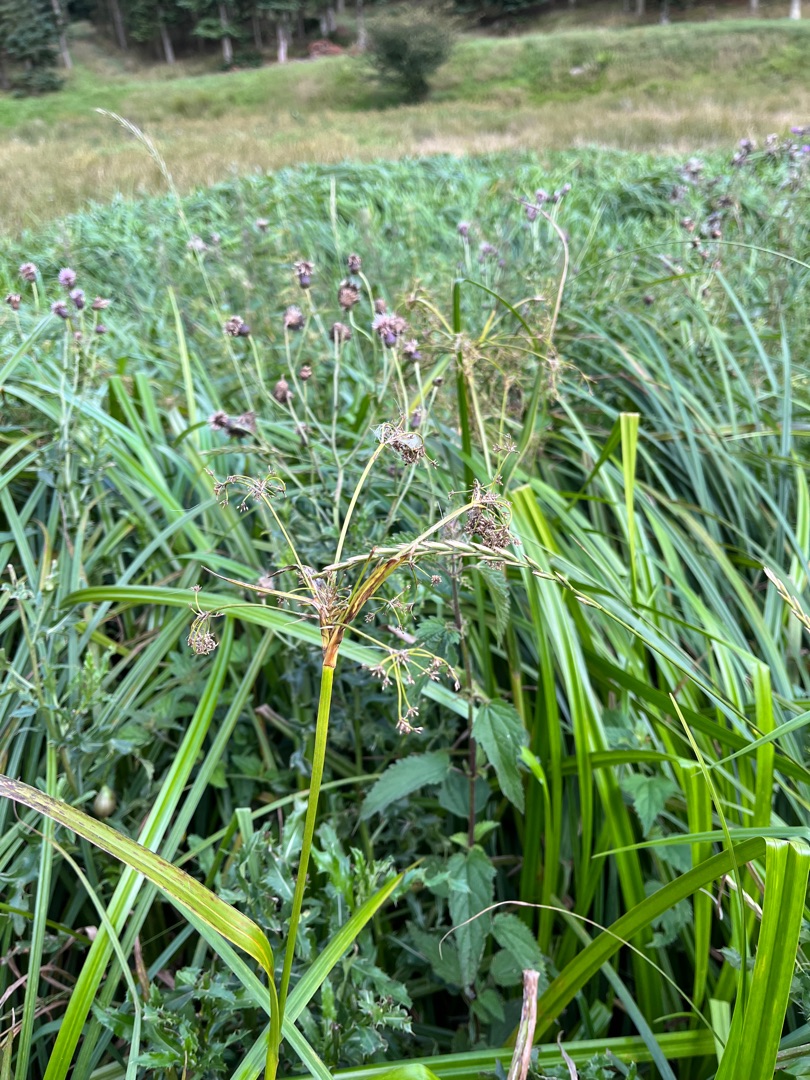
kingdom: Plantae
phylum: Tracheophyta
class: Liliopsida
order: Poales
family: Cyperaceae
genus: Scirpus
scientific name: Scirpus sylvaticus
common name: Skov-kogleaks
